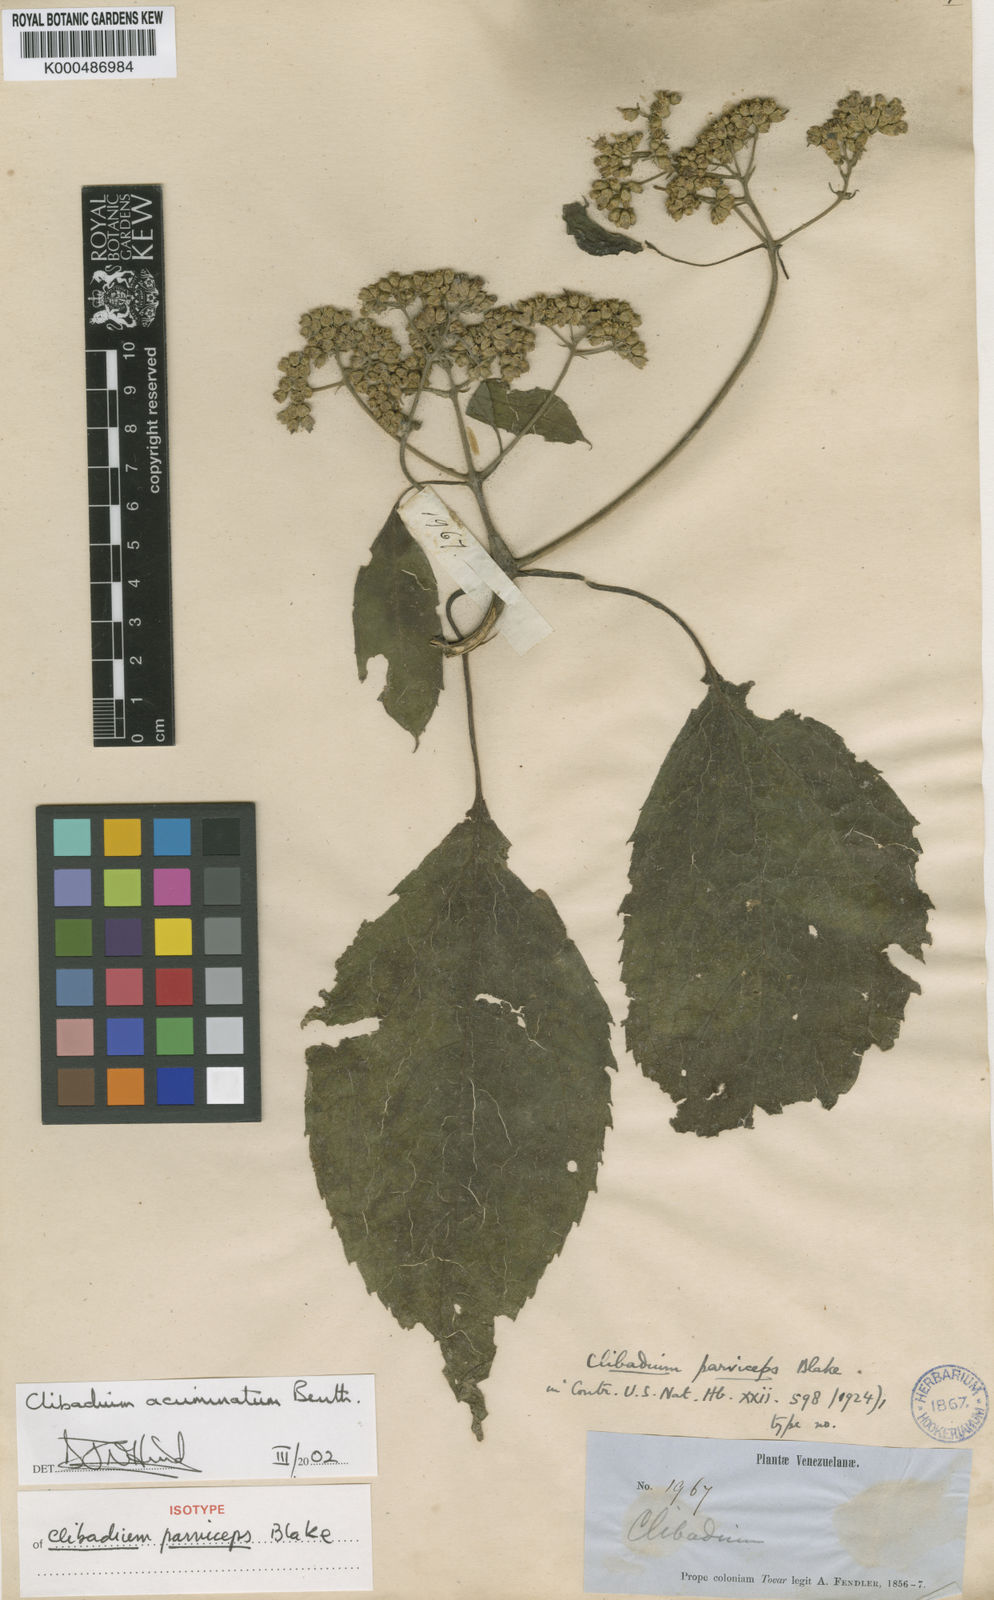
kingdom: Plantae
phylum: Tracheophyta
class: Magnoliopsida
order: Asterales
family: Asteraceae
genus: Clibadium
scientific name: Clibadium acuminatum
